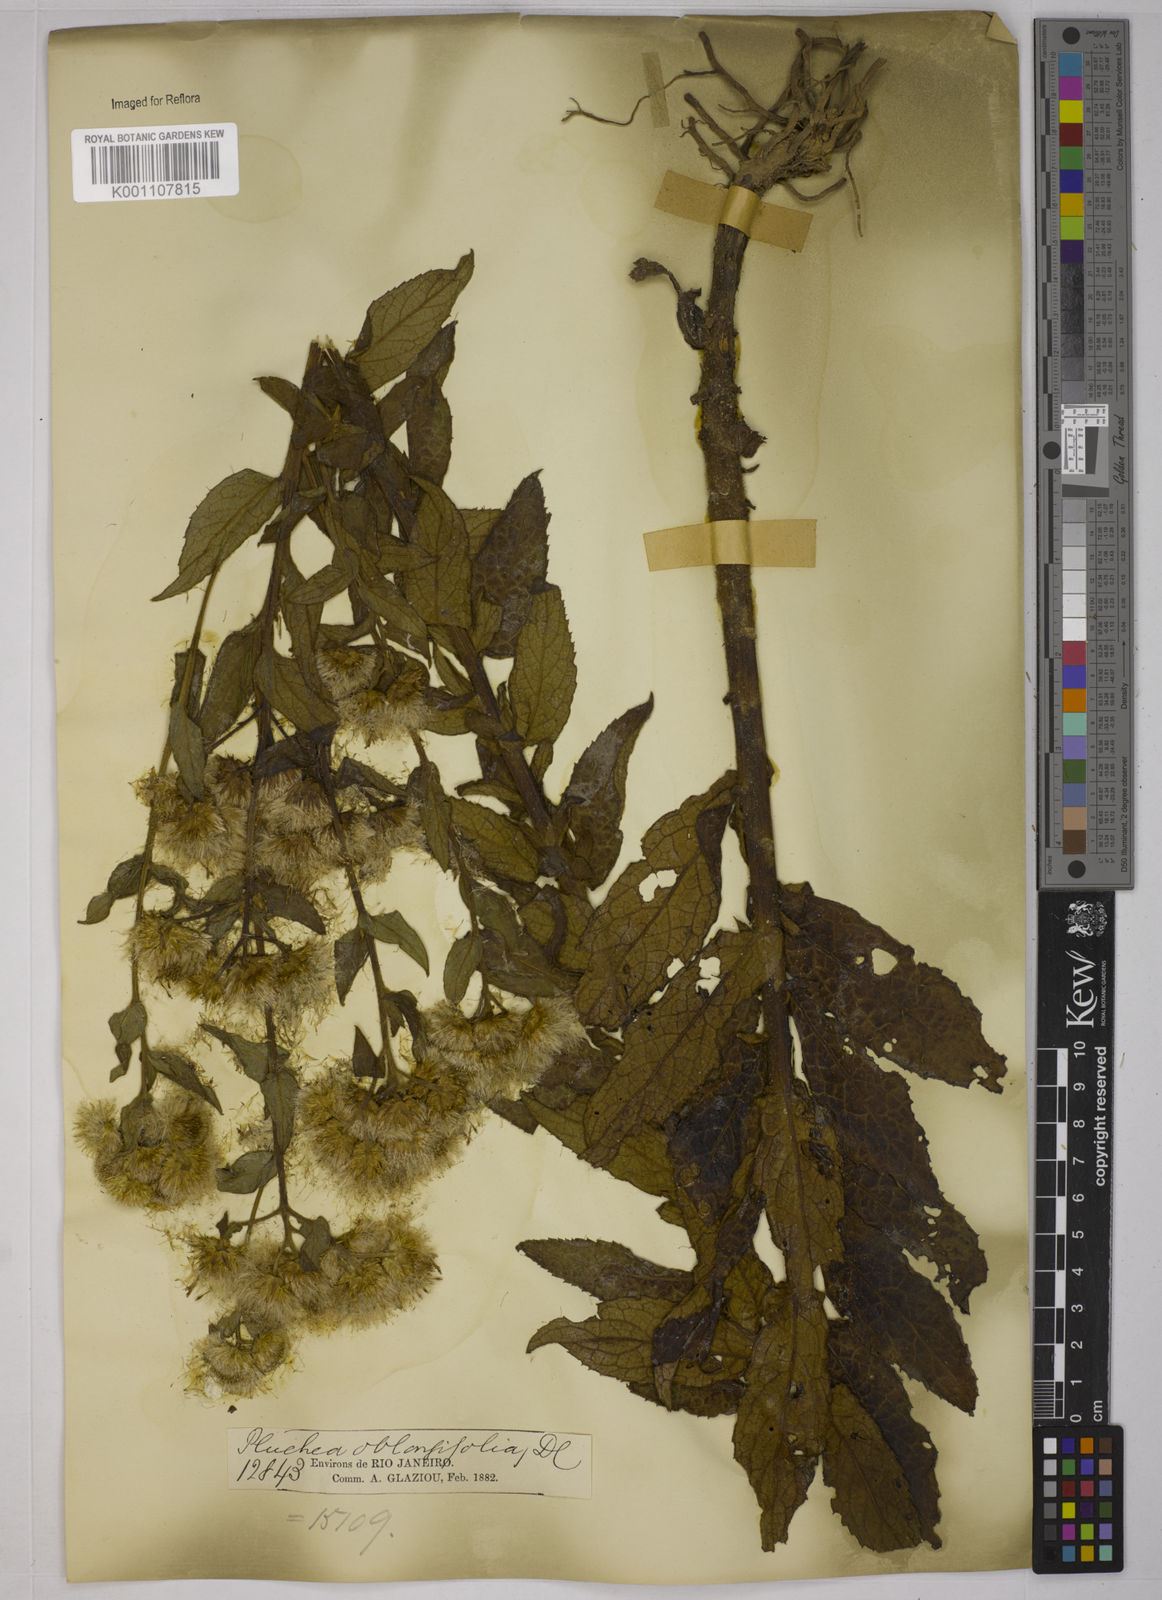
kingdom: Plantae
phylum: Tracheophyta
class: Magnoliopsida
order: Asterales
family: Asteraceae
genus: Pluchea
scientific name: Pluchea oblongifolia
